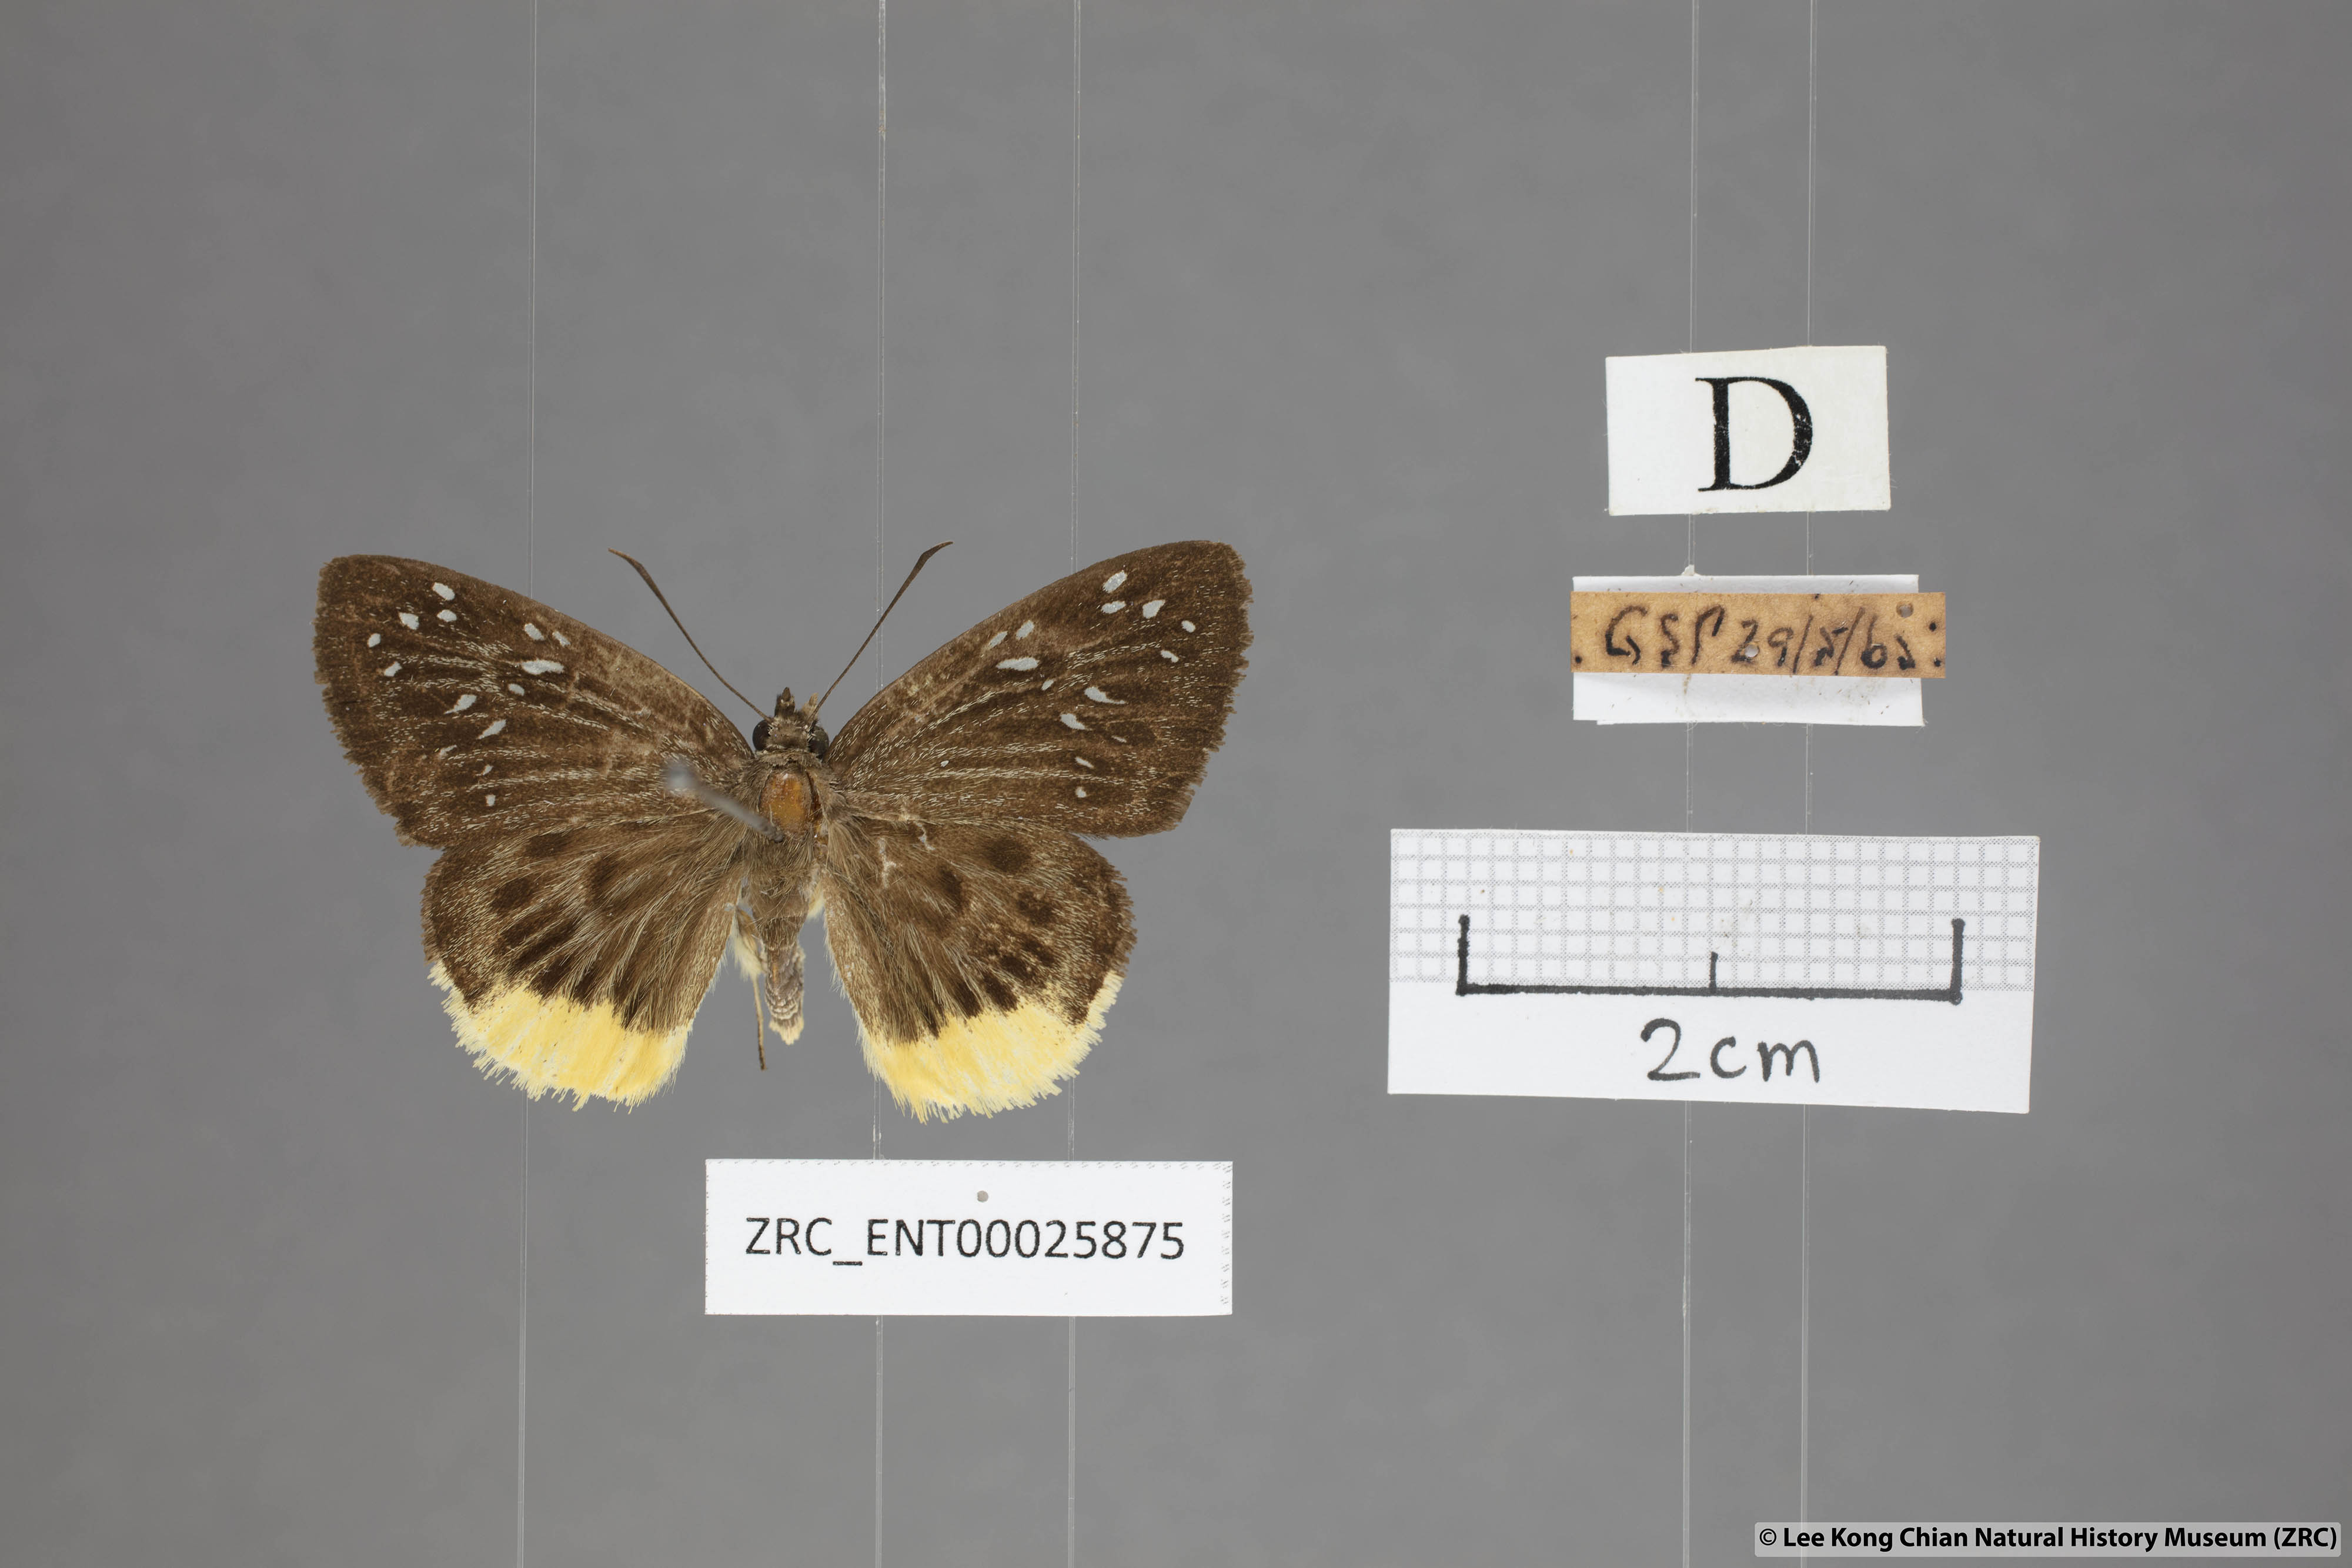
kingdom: Animalia
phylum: Arthropoda
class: Insecta
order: Lepidoptera
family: Hesperiidae
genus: Mooreana
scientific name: Mooreana trichoneura
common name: Yellow flat
